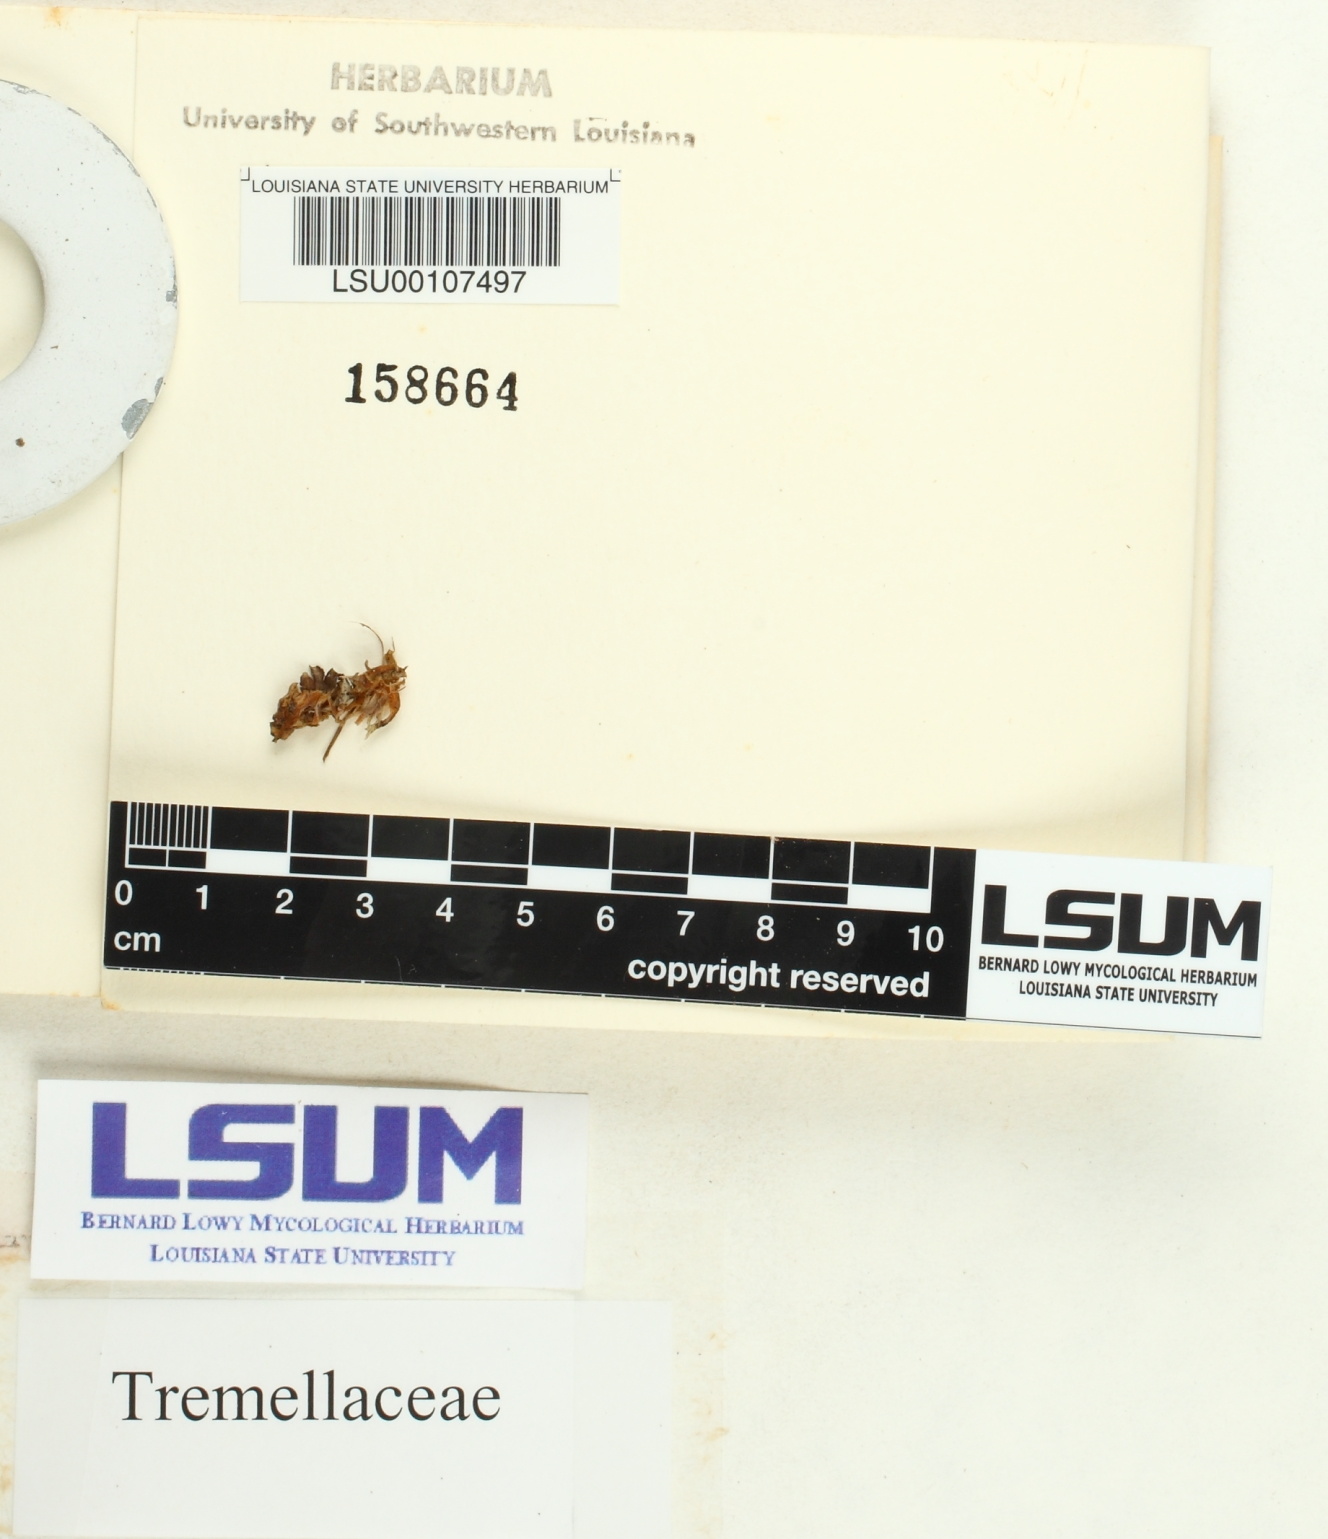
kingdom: Fungi
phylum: Basidiomycota
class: Tremellomycetes
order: Tremellales
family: Tremellaceae
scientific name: Tremellaceae
